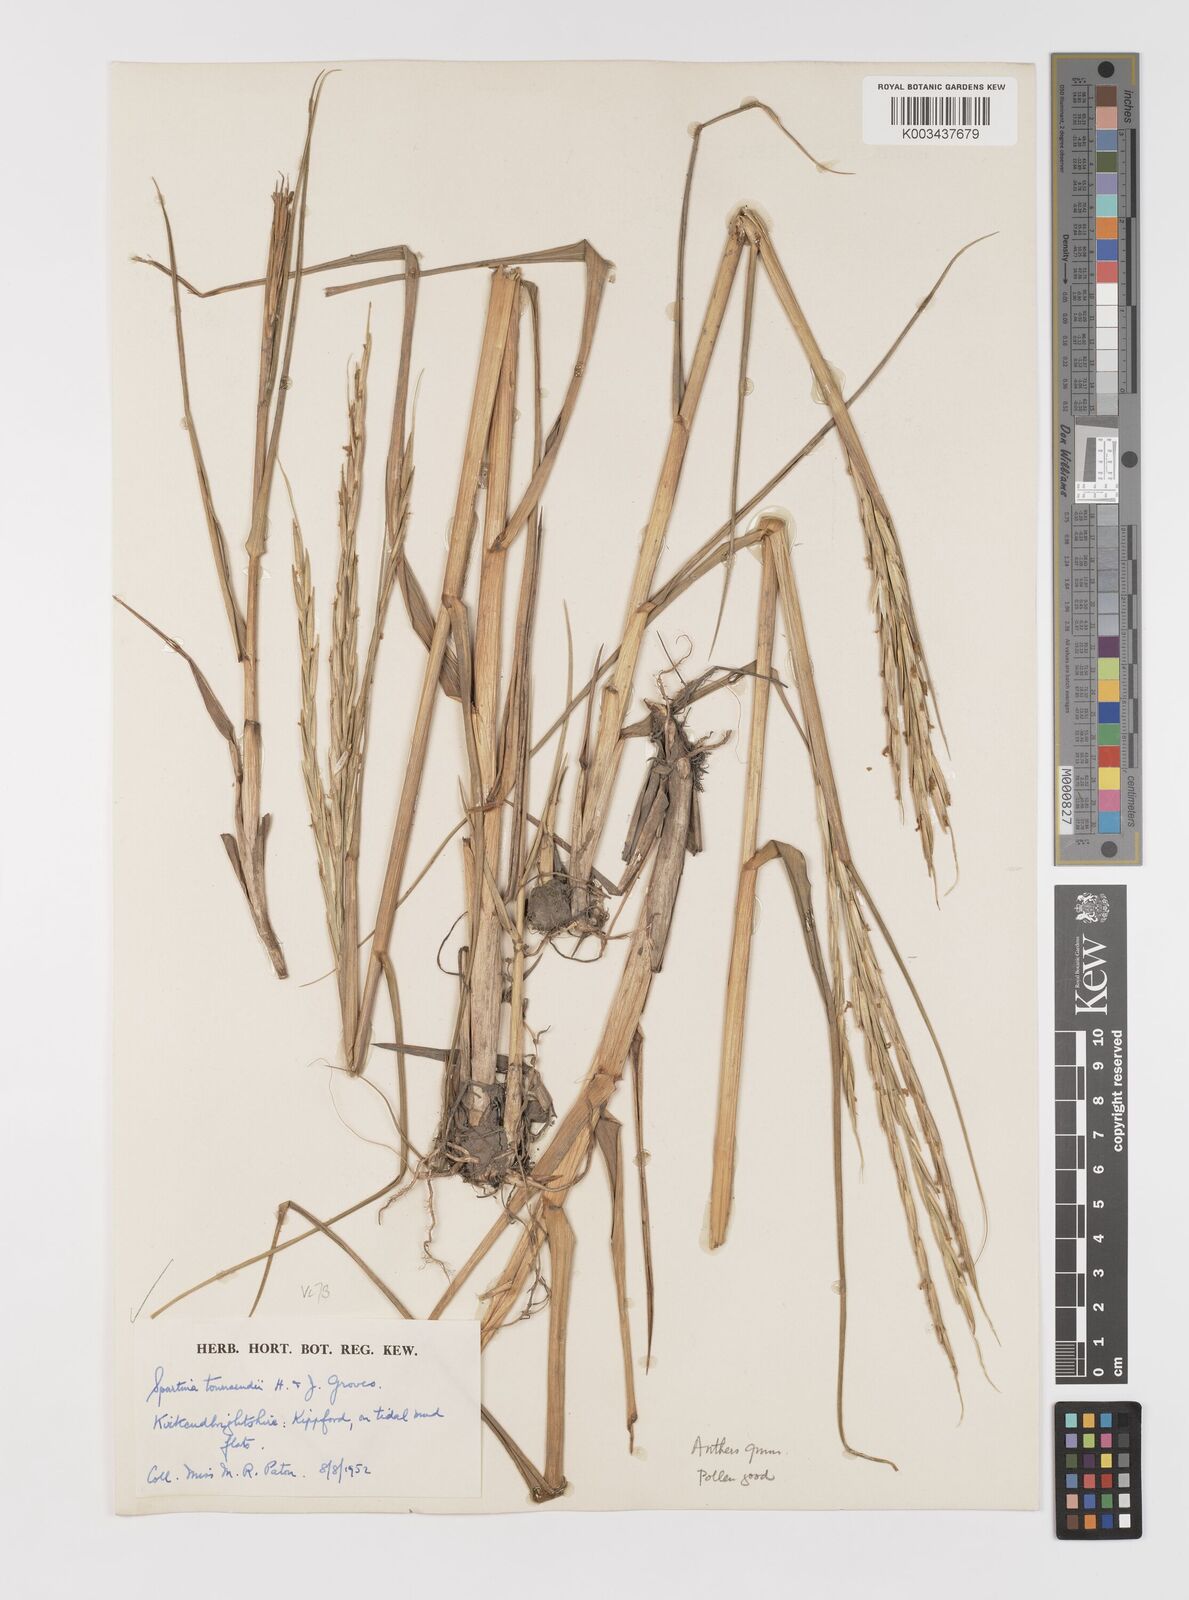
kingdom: Plantae
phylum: Tracheophyta
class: Liliopsida
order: Poales
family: Poaceae
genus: Sporobolus
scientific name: Sporobolus anglicus
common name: English cordgrass
